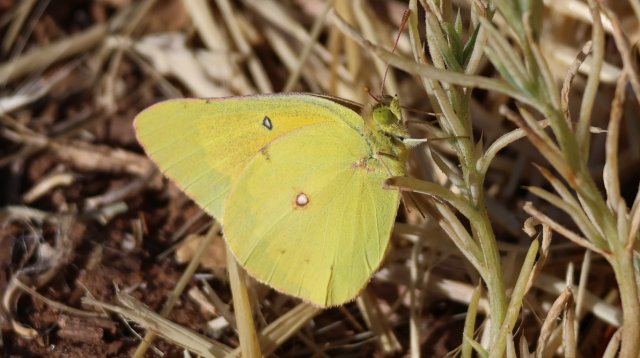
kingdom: Animalia
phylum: Arthropoda
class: Insecta
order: Lepidoptera
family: Pieridae
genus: Colias
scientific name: Colias eurytheme
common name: Orange Sulphur
